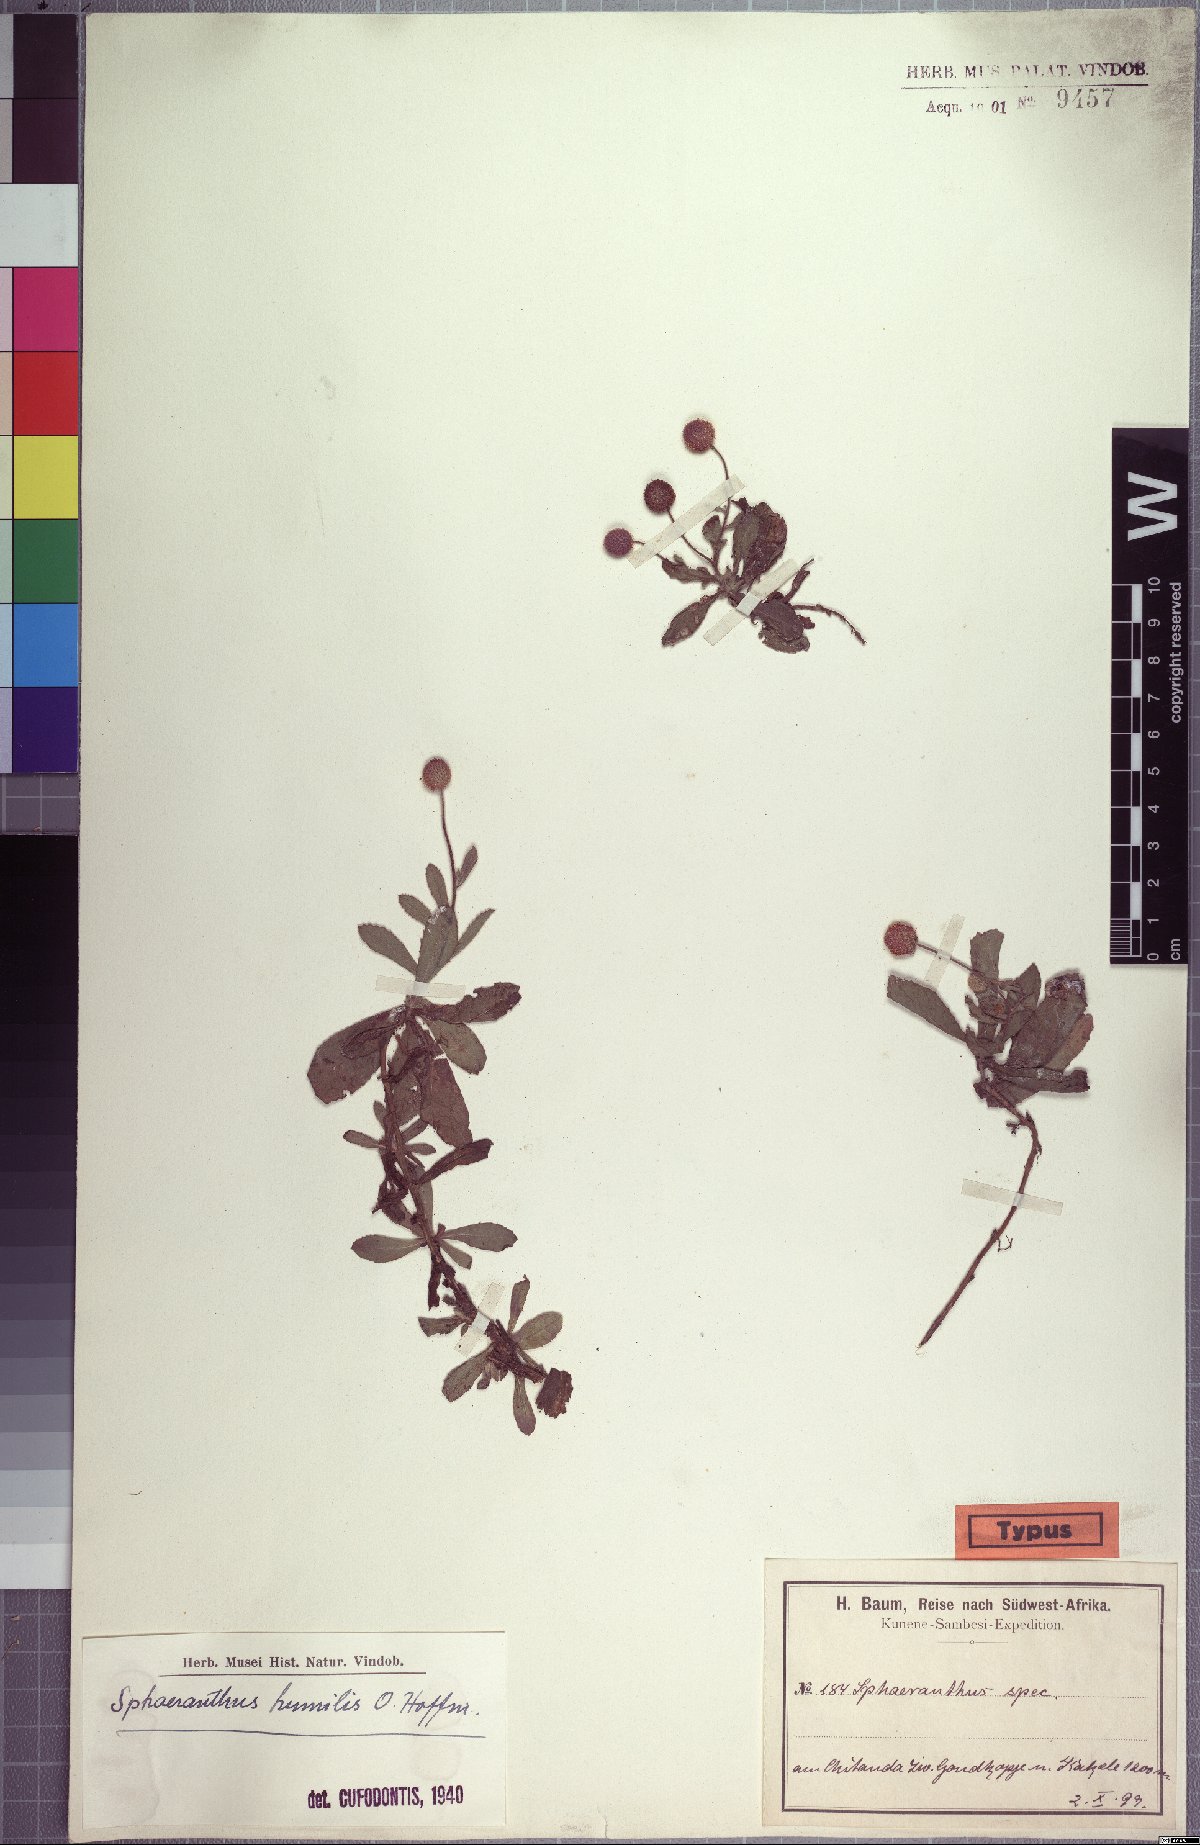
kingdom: Plantae
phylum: Tracheophyta
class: Magnoliopsida
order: Asterales
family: Asteraceae
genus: Sphaeranthus
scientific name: Sphaeranthus flexuosus
